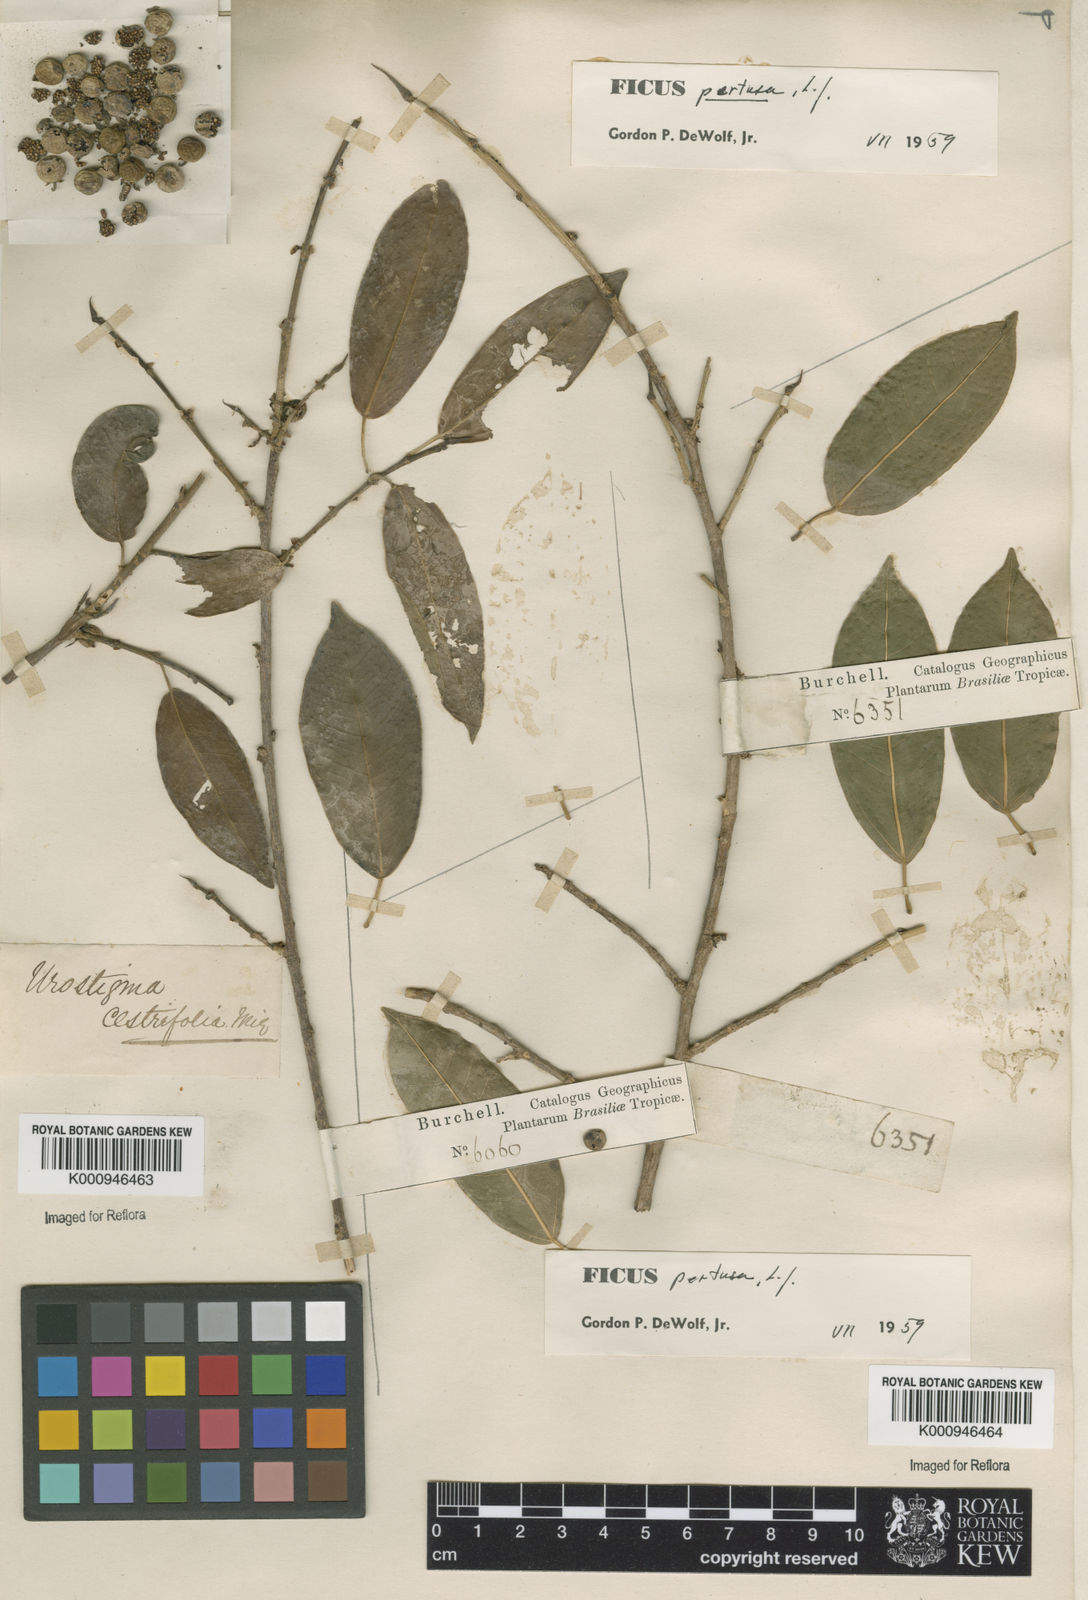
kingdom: Plantae
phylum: Tracheophyta
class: Magnoliopsida
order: Rosales
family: Moraceae
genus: Ficus
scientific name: Ficus pertusa
